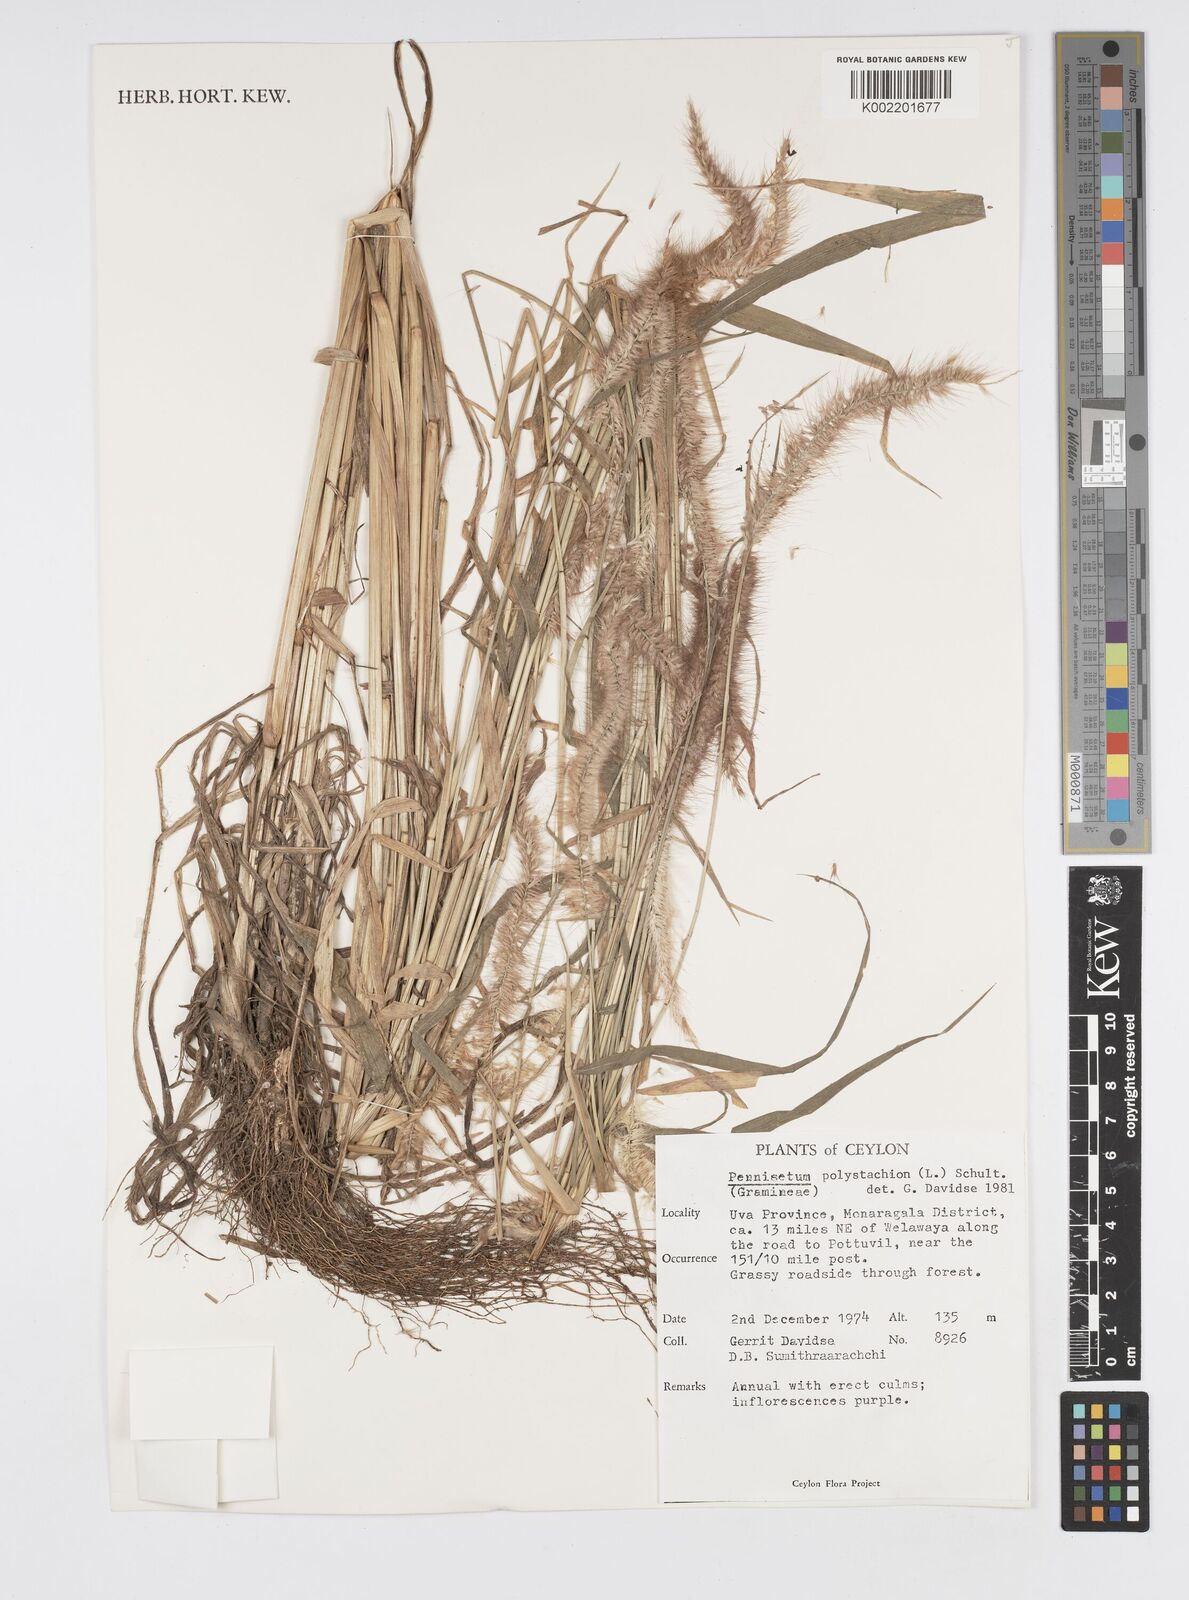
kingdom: Plantae
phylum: Tracheophyta
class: Liliopsida
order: Poales
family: Poaceae
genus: Setaria
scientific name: Setaria parviflora
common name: Knotroot bristle-grass
